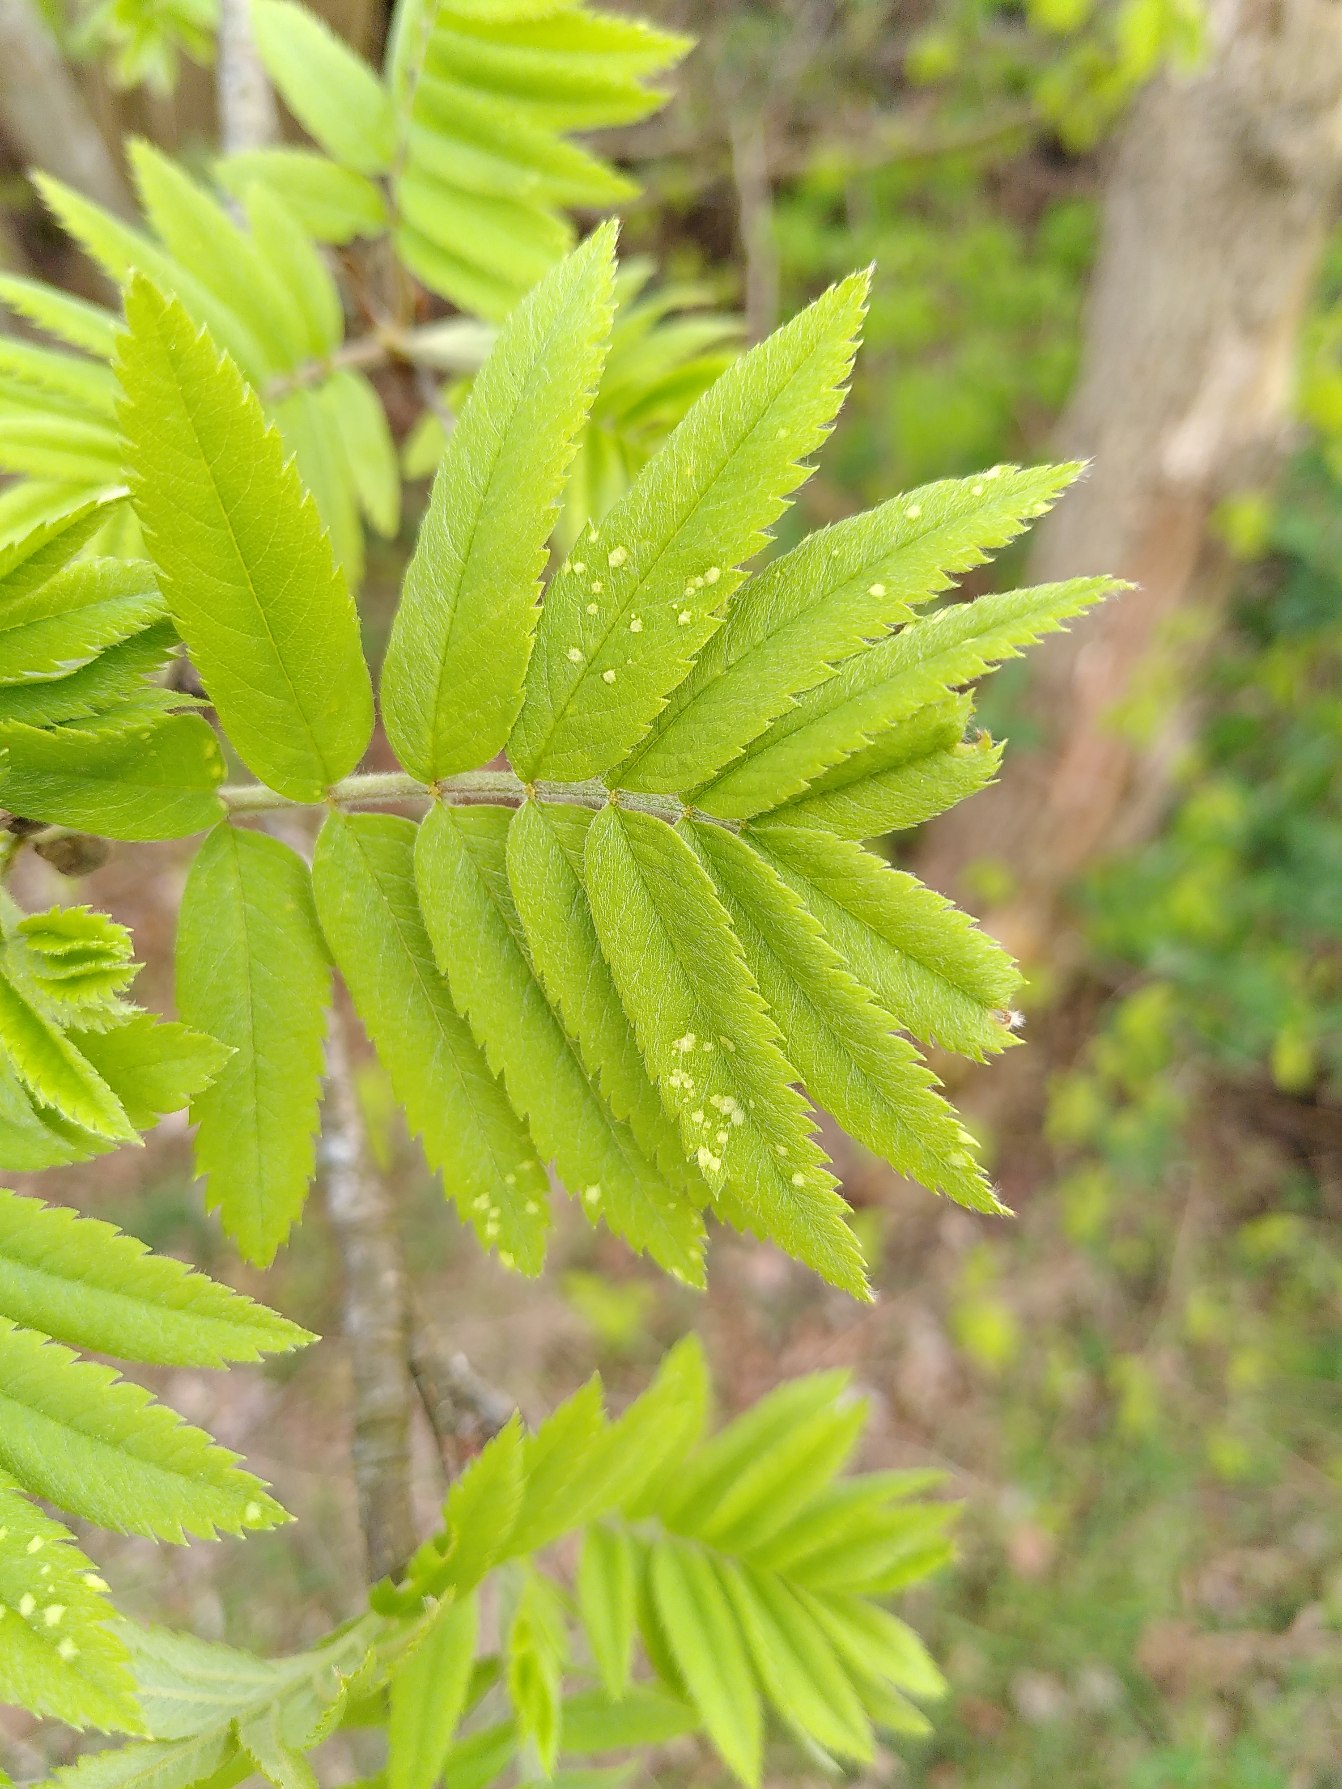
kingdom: Plantae
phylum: Tracheophyta
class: Magnoliopsida
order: Rosales
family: Rosaceae
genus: Sorbus
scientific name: Sorbus aucuparia
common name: Almindelig røn
